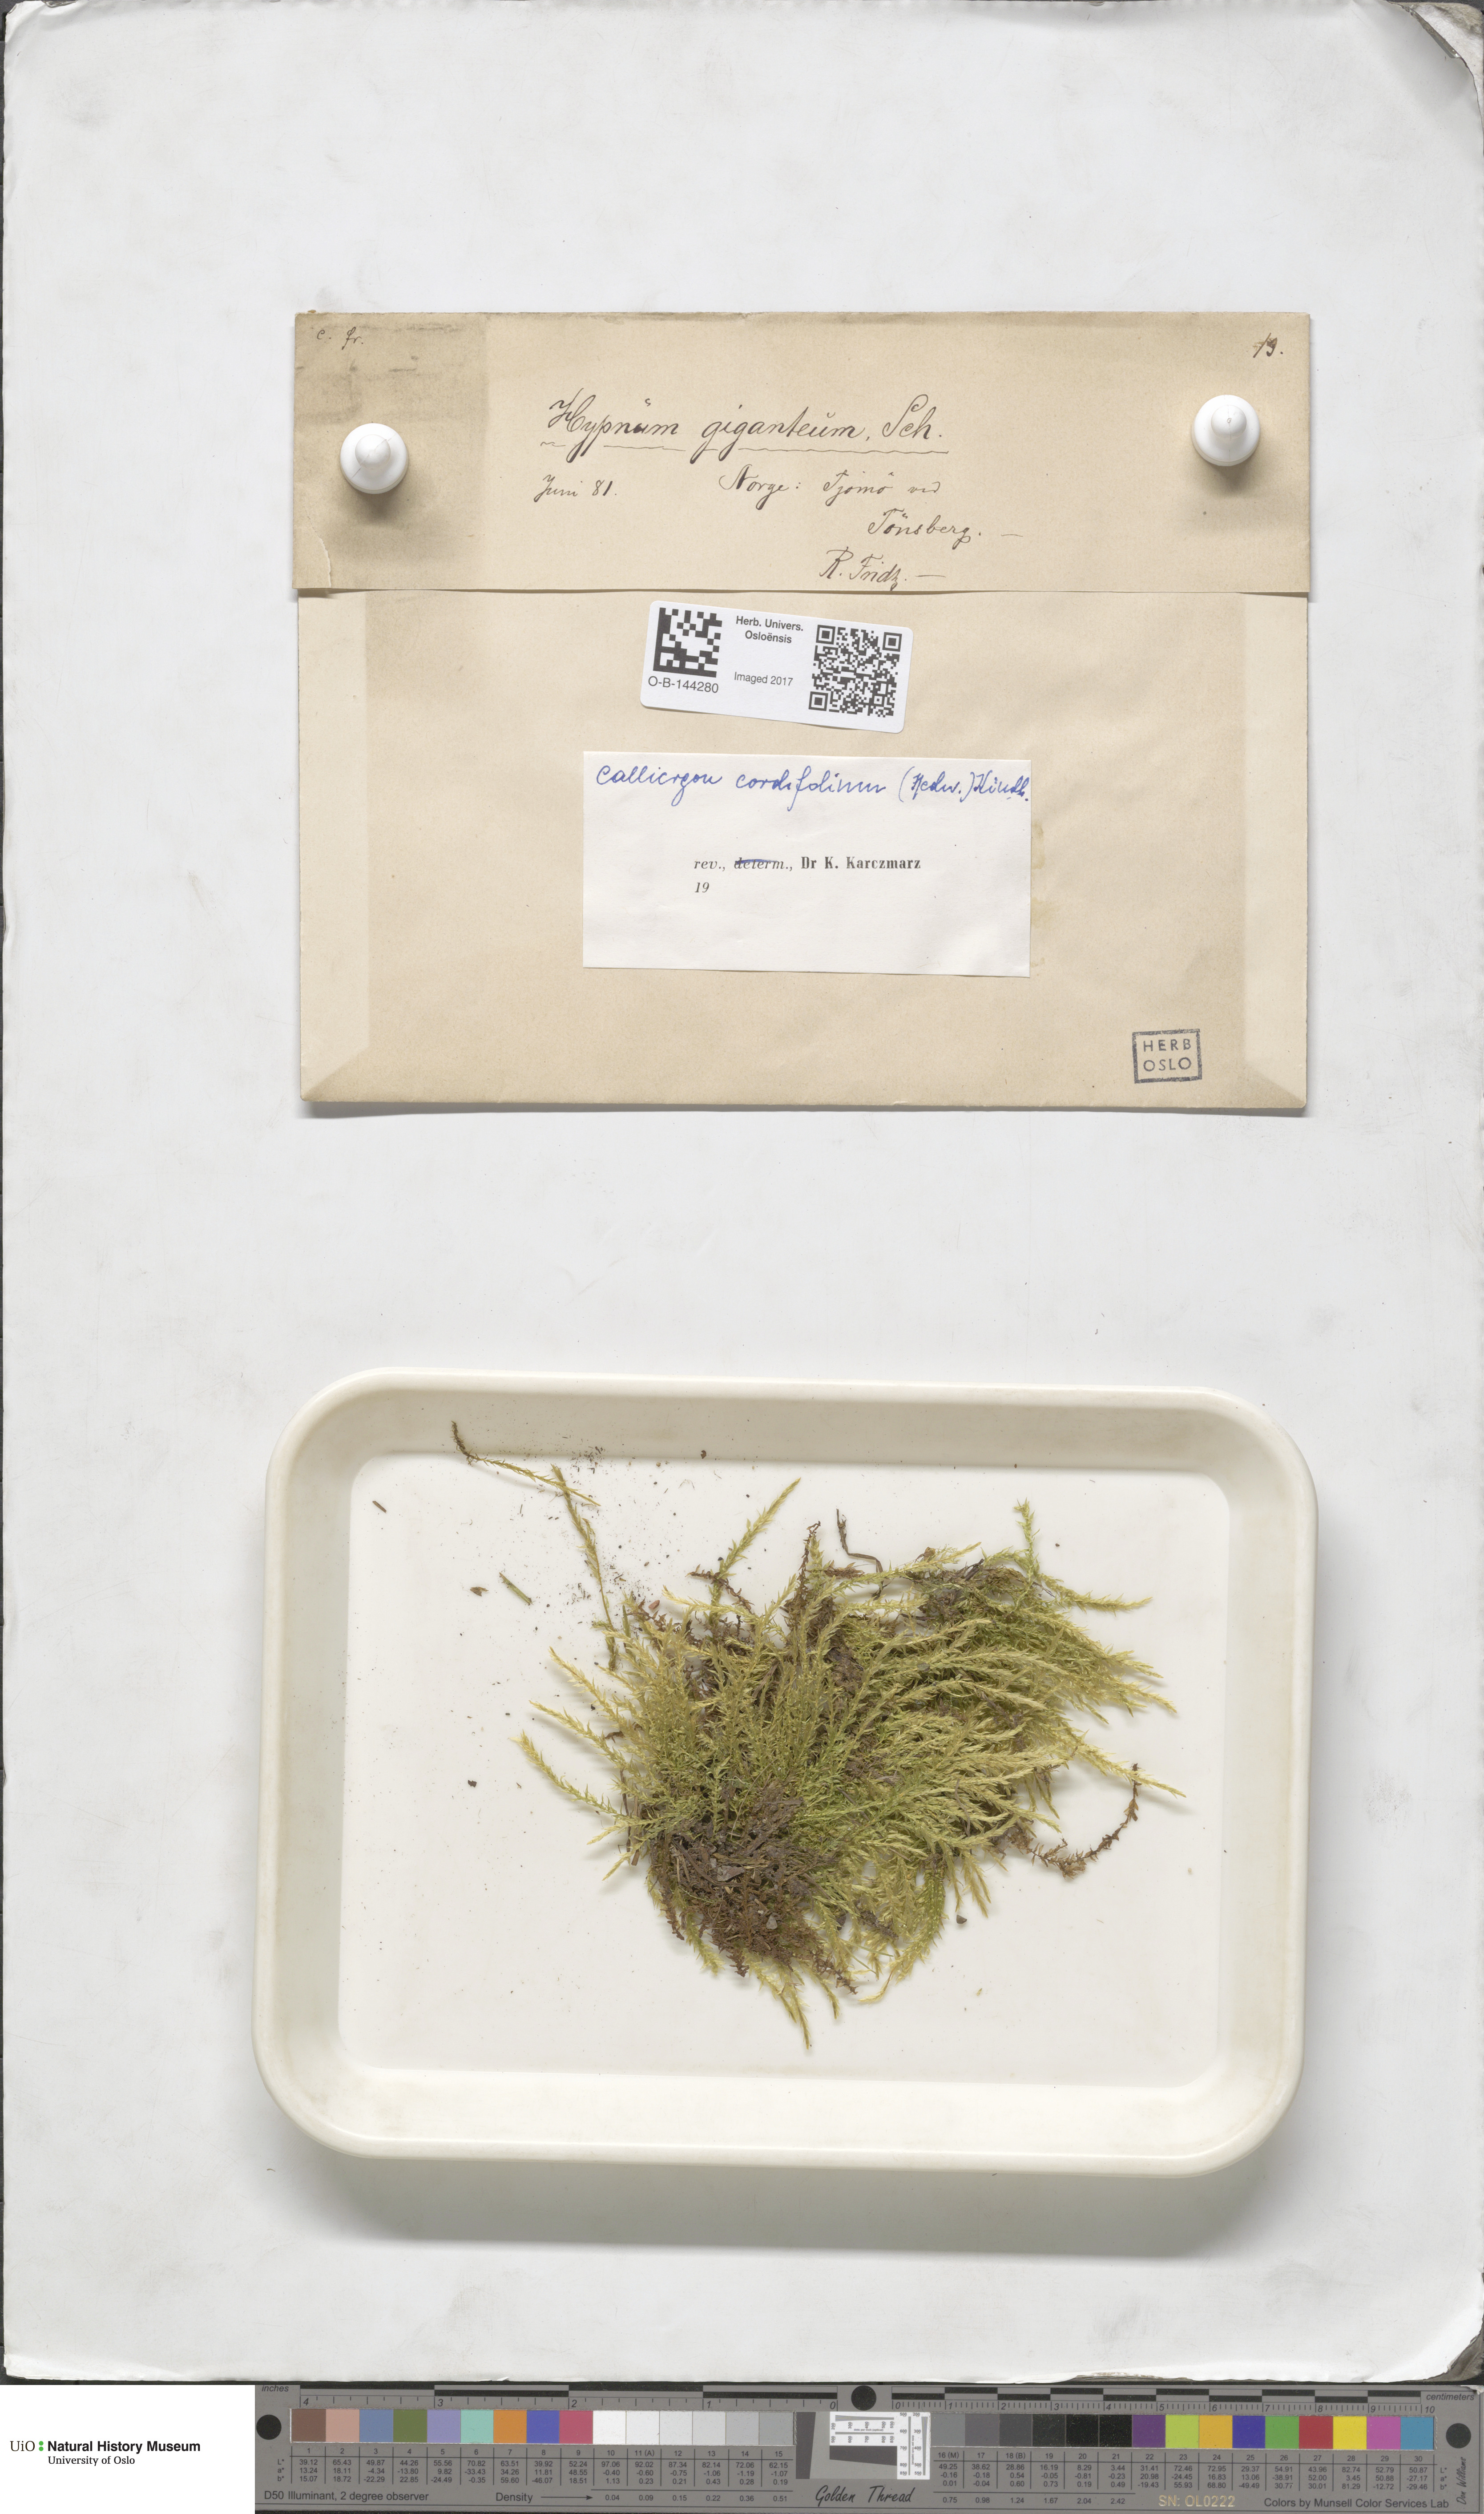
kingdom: Plantae
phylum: Bryophyta
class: Bryopsida
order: Hypnales
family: Calliergonaceae
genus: Calliergon
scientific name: Calliergon cordifolium
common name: Heart-leaved spear moss
